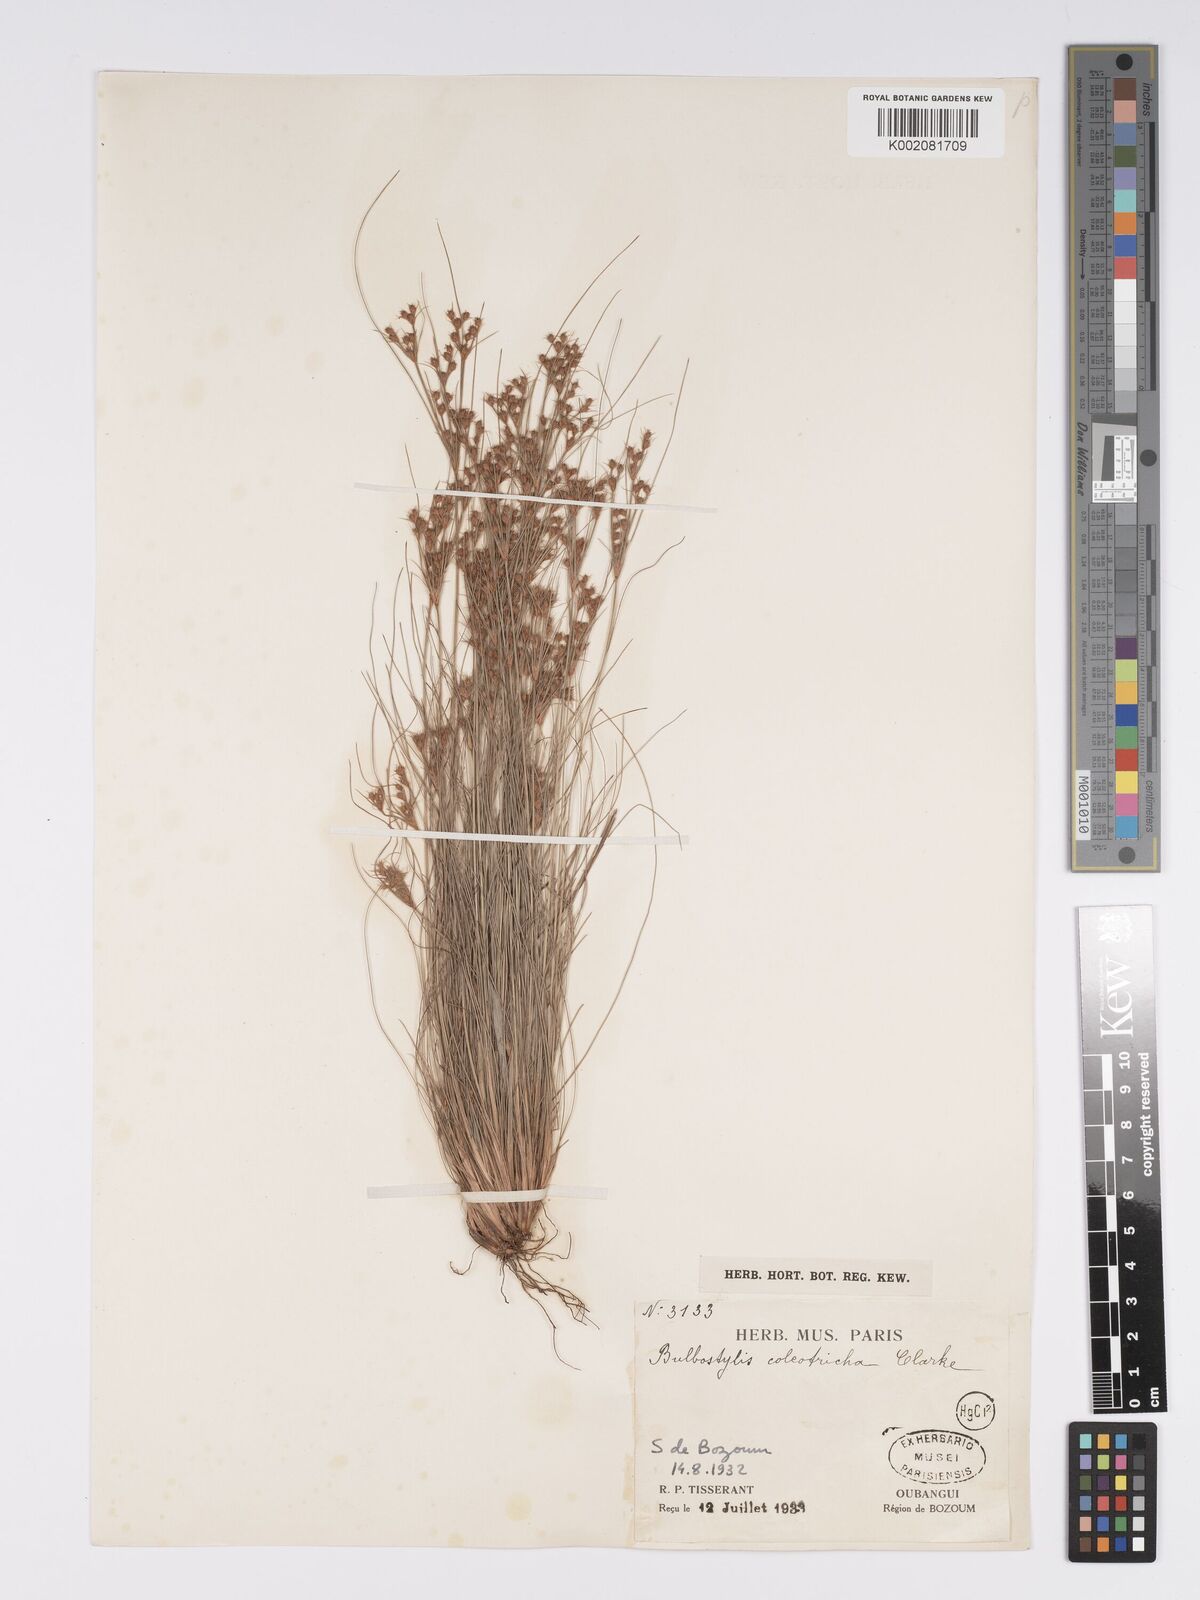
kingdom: Plantae
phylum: Tracheophyta
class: Liliopsida
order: Poales
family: Cyperaceae
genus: Bulbostylis
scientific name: Bulbostylis coleotricha
